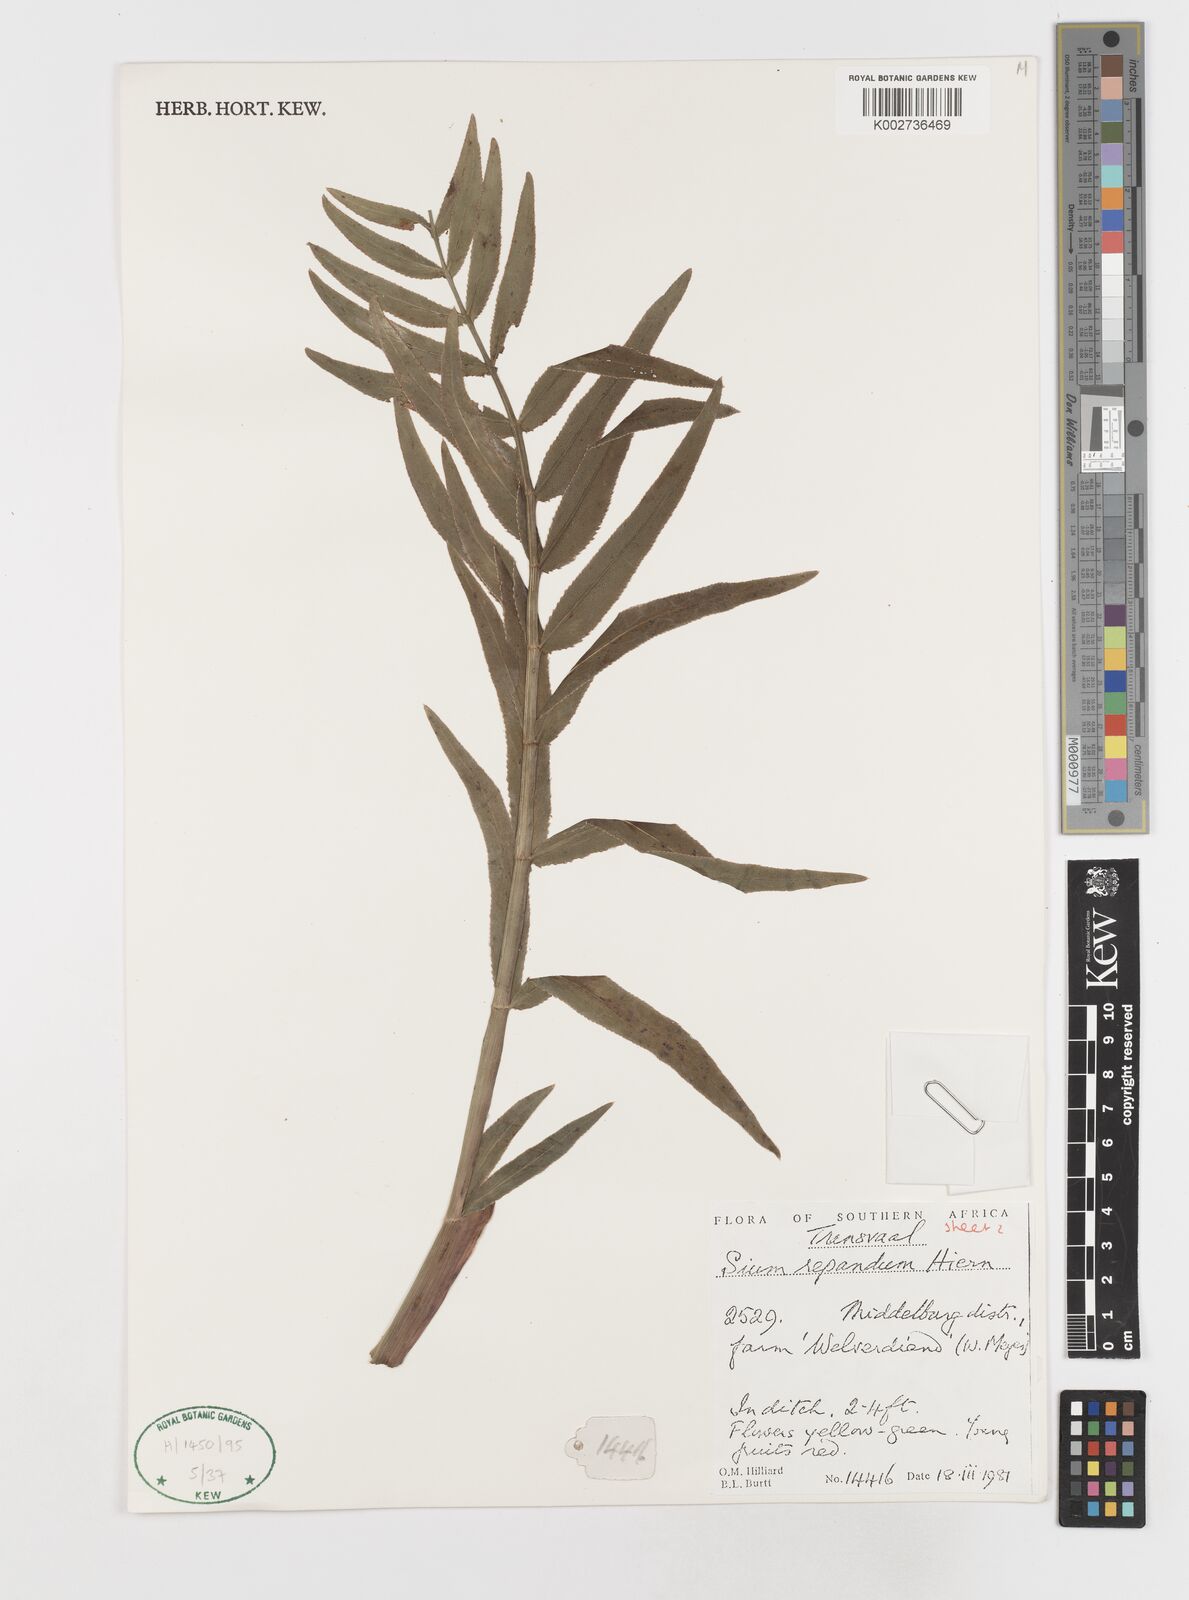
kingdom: Plantae
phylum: Tracheophyta
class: Magnoliopsida
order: Apiales
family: Apiaceae
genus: Berula
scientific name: Berula repanda
